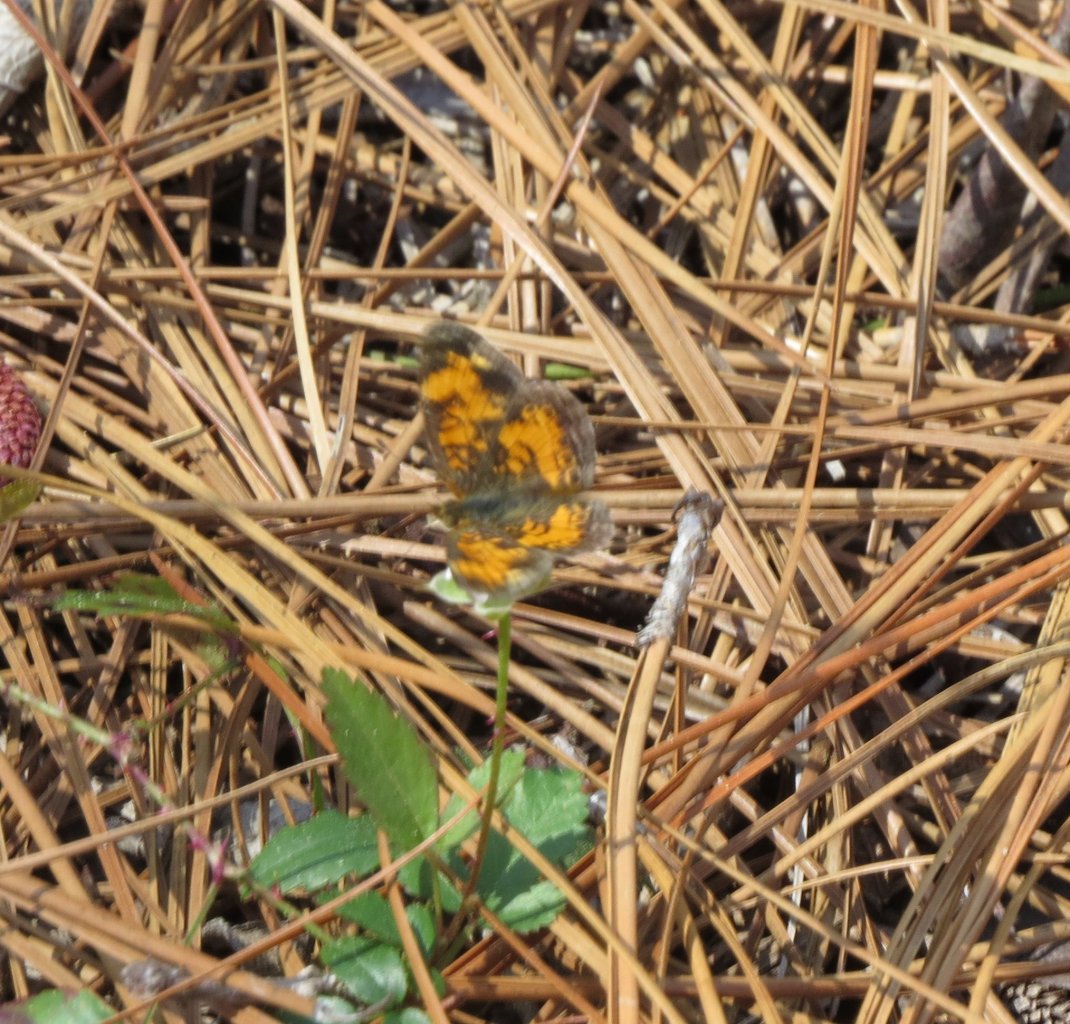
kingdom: Animalia
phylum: Arthropoda
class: Insecta
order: Lepidoptera
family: Nymphalidae
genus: Phyciodes
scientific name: Phyciodes tharos
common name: Pearl Crescent
